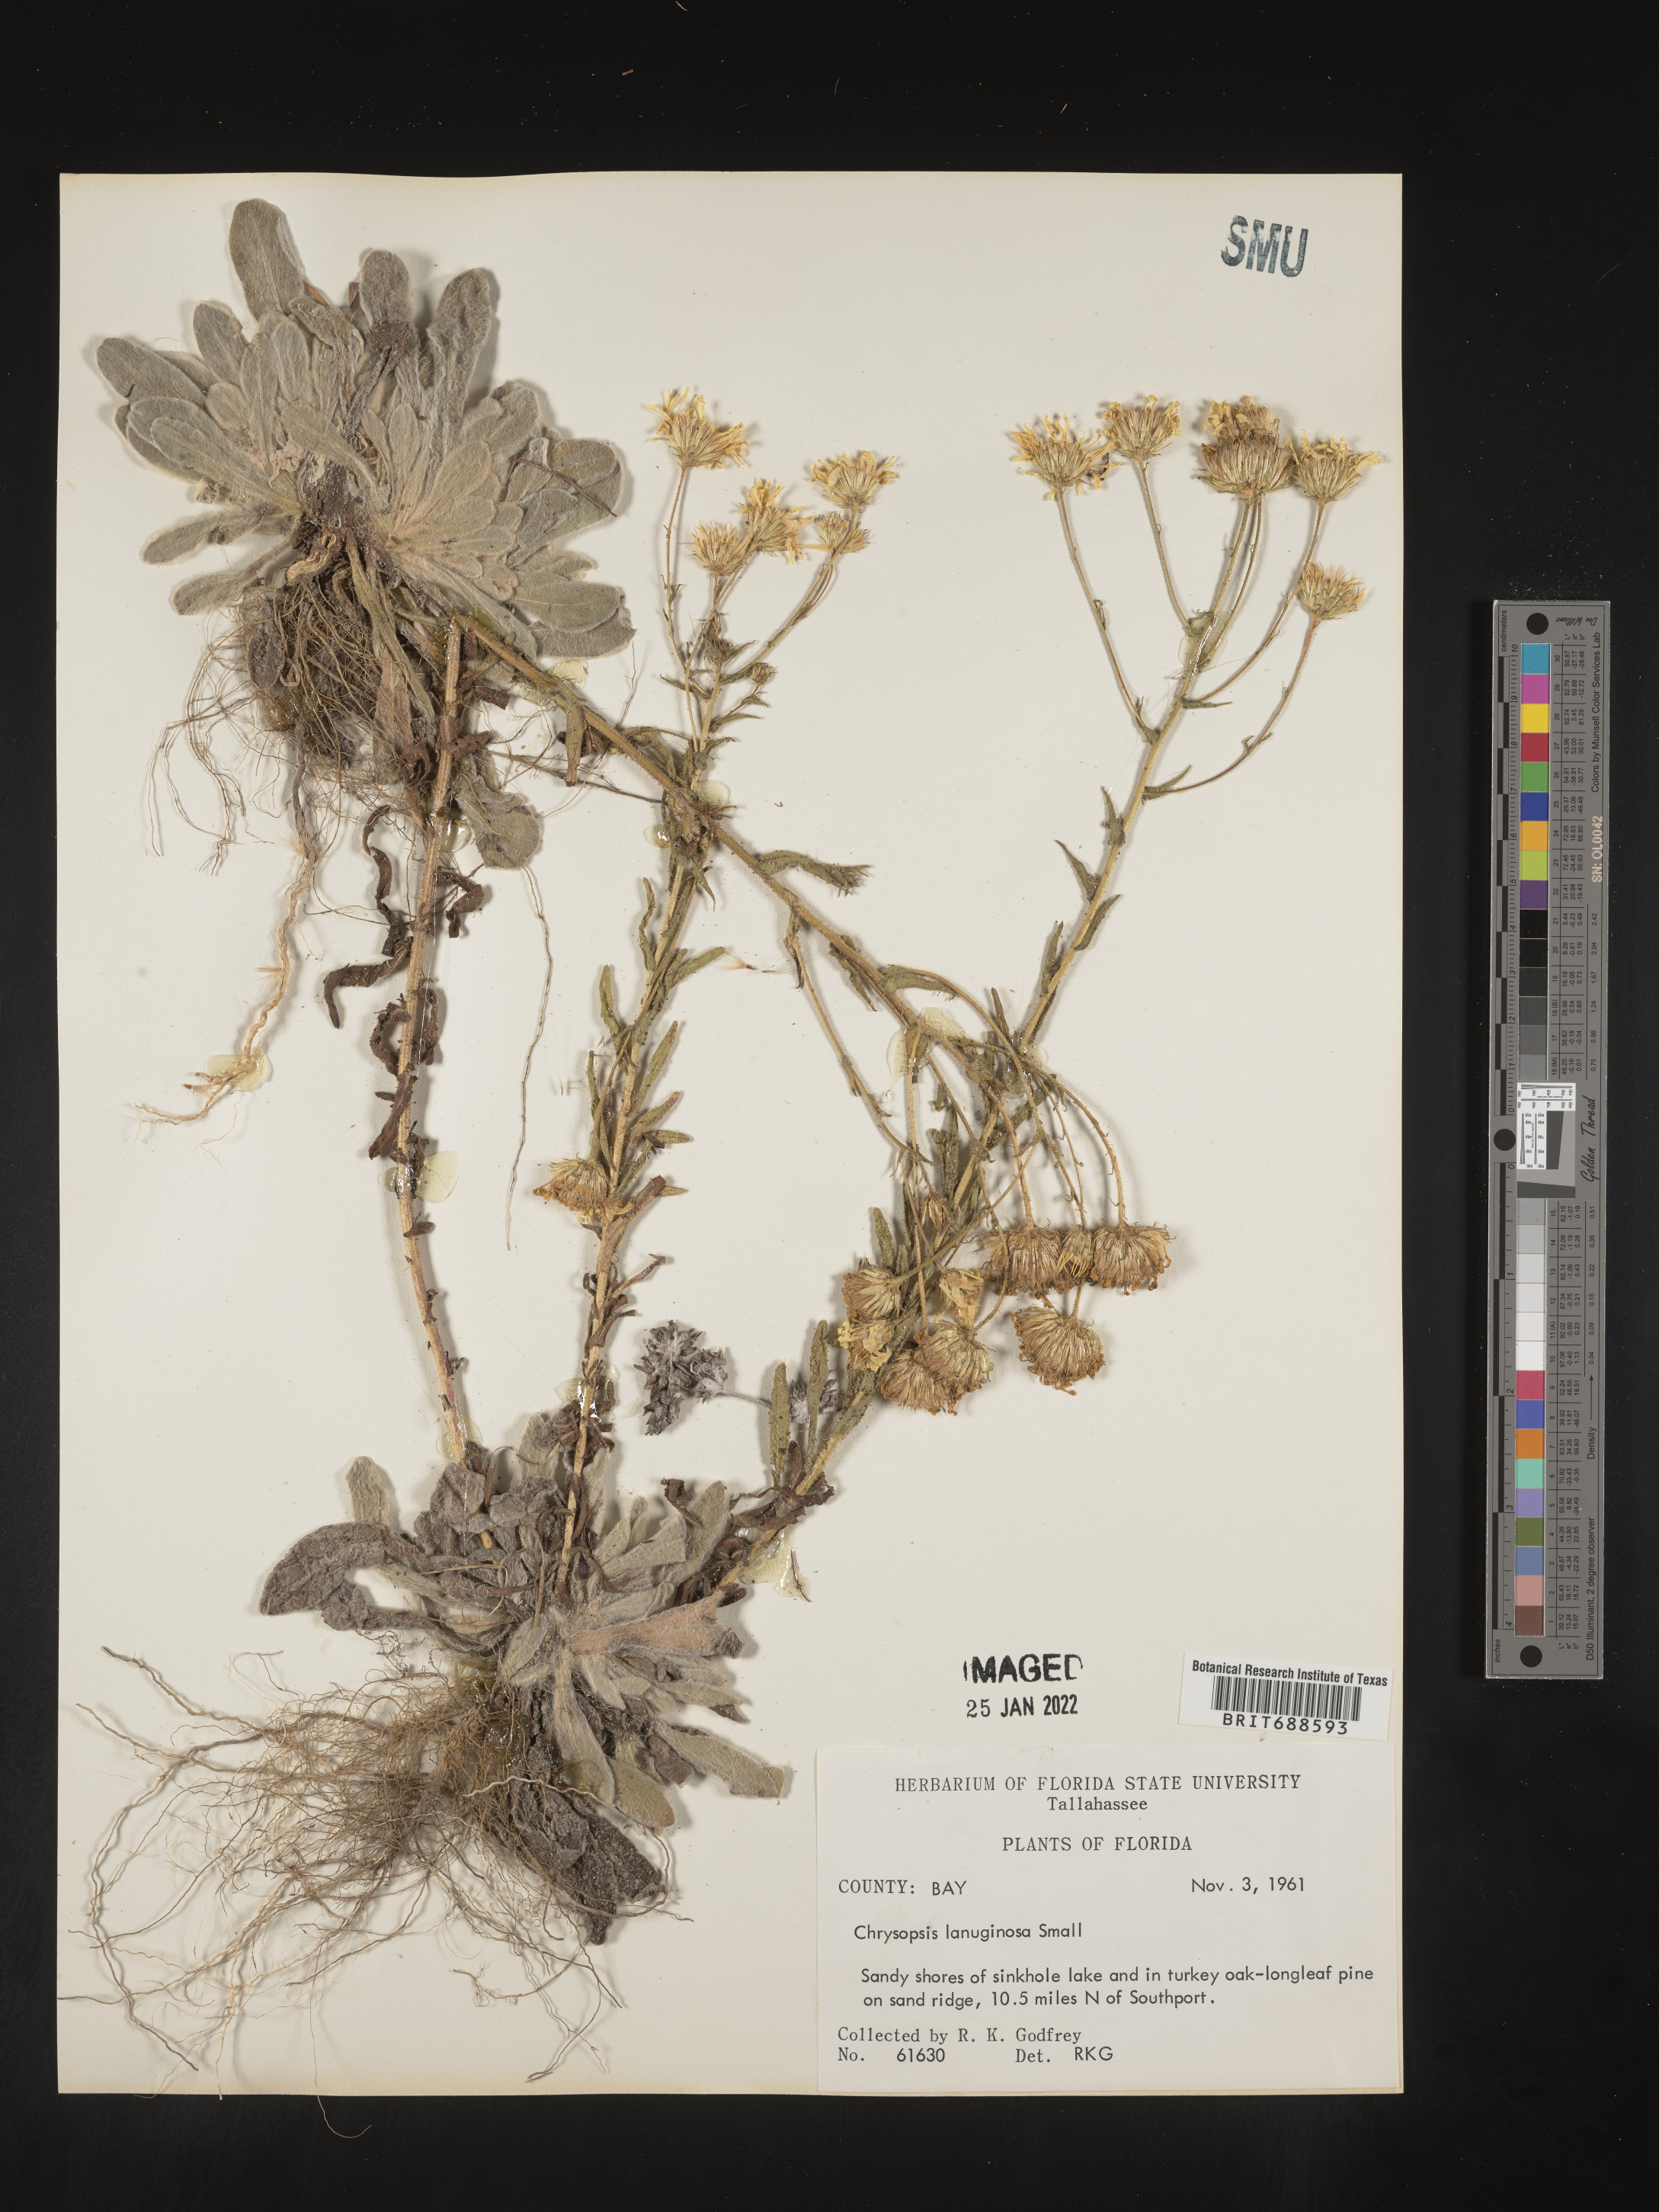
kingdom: Plantae
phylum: Tracheophyta
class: Magnoliopsida
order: Asterales
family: Asteraceae
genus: Chrysopsis
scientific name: Chrysopsis lanuginosa
